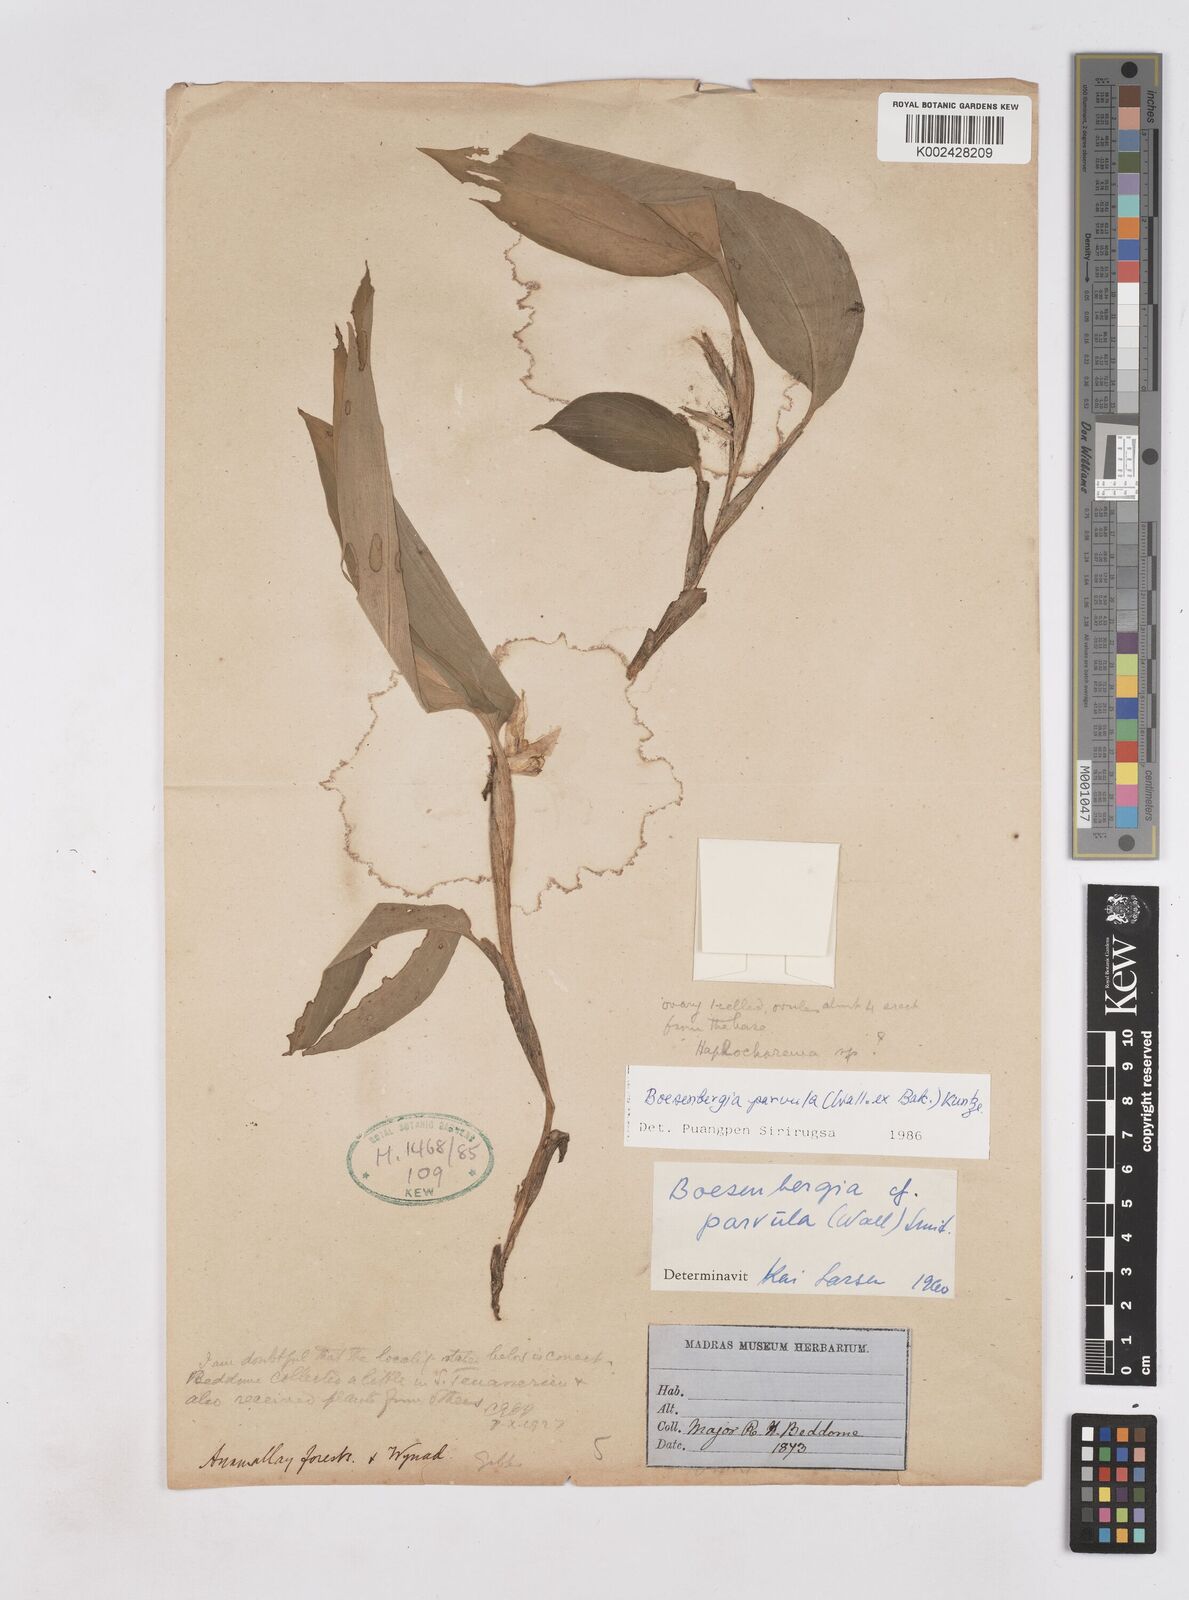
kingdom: Plantae
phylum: Tracheophyta
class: Liliopsida
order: Zingiberales
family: Zingiberaceae
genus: Boesenbergia
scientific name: Boesenbergia parvula
